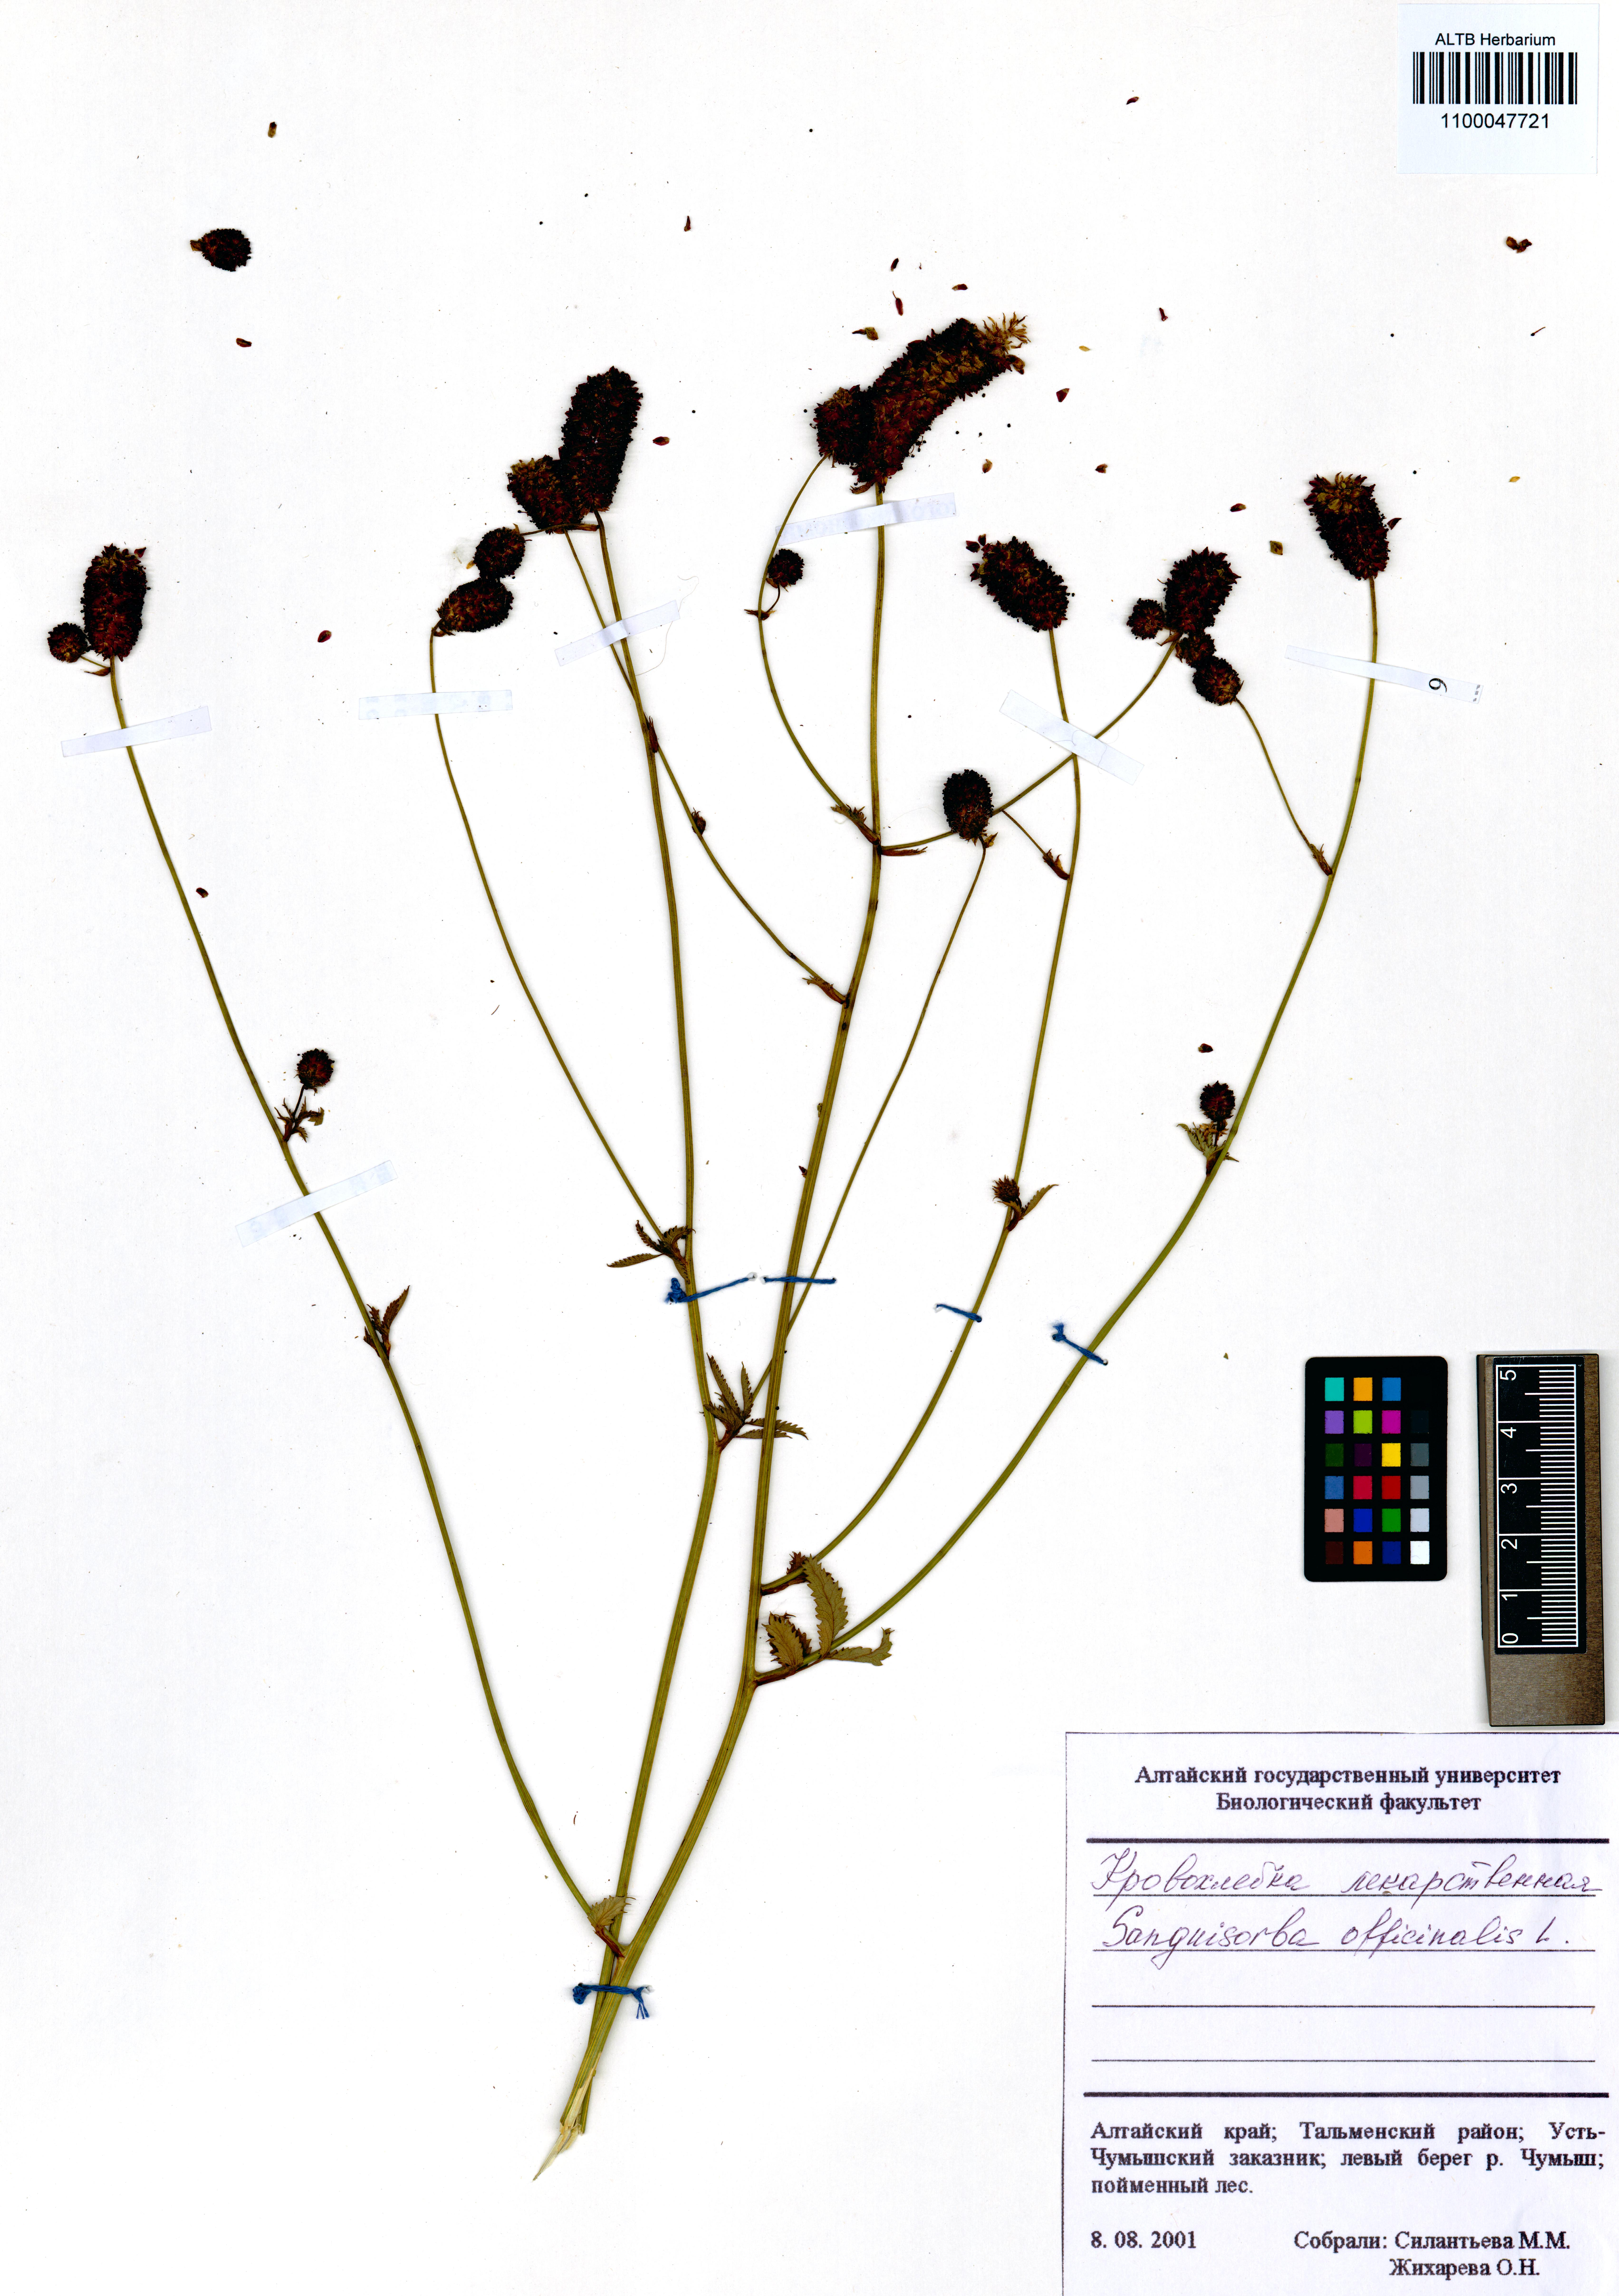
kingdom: Plantae
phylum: Tracheophyta
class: Magnoliopsida
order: Rosales
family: Rosaceae
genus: Sanguisorba
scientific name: Sanguisorba officinalis
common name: Great burnet
